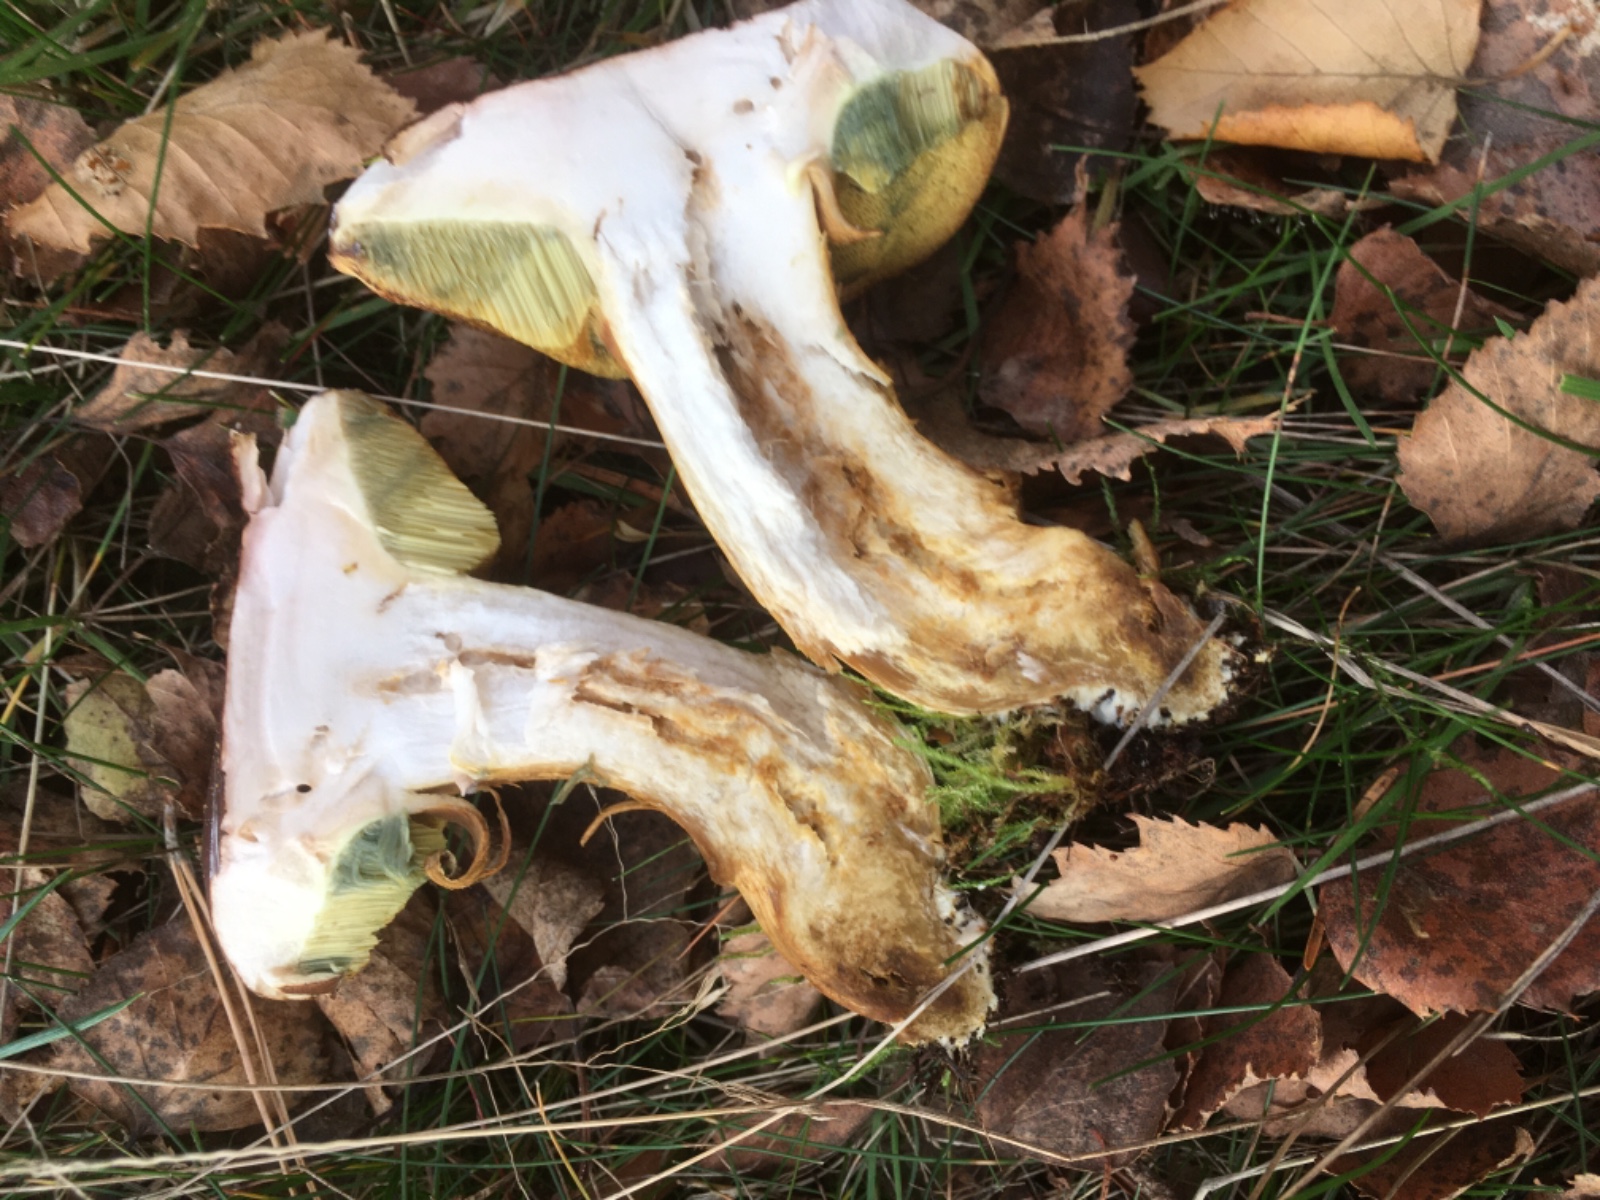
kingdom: Fungi
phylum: Basidiomycota
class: Agaricomycetes
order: Boletales
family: Boletaceae
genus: Imleria
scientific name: Imleria badia
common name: brunstokket rørhat
